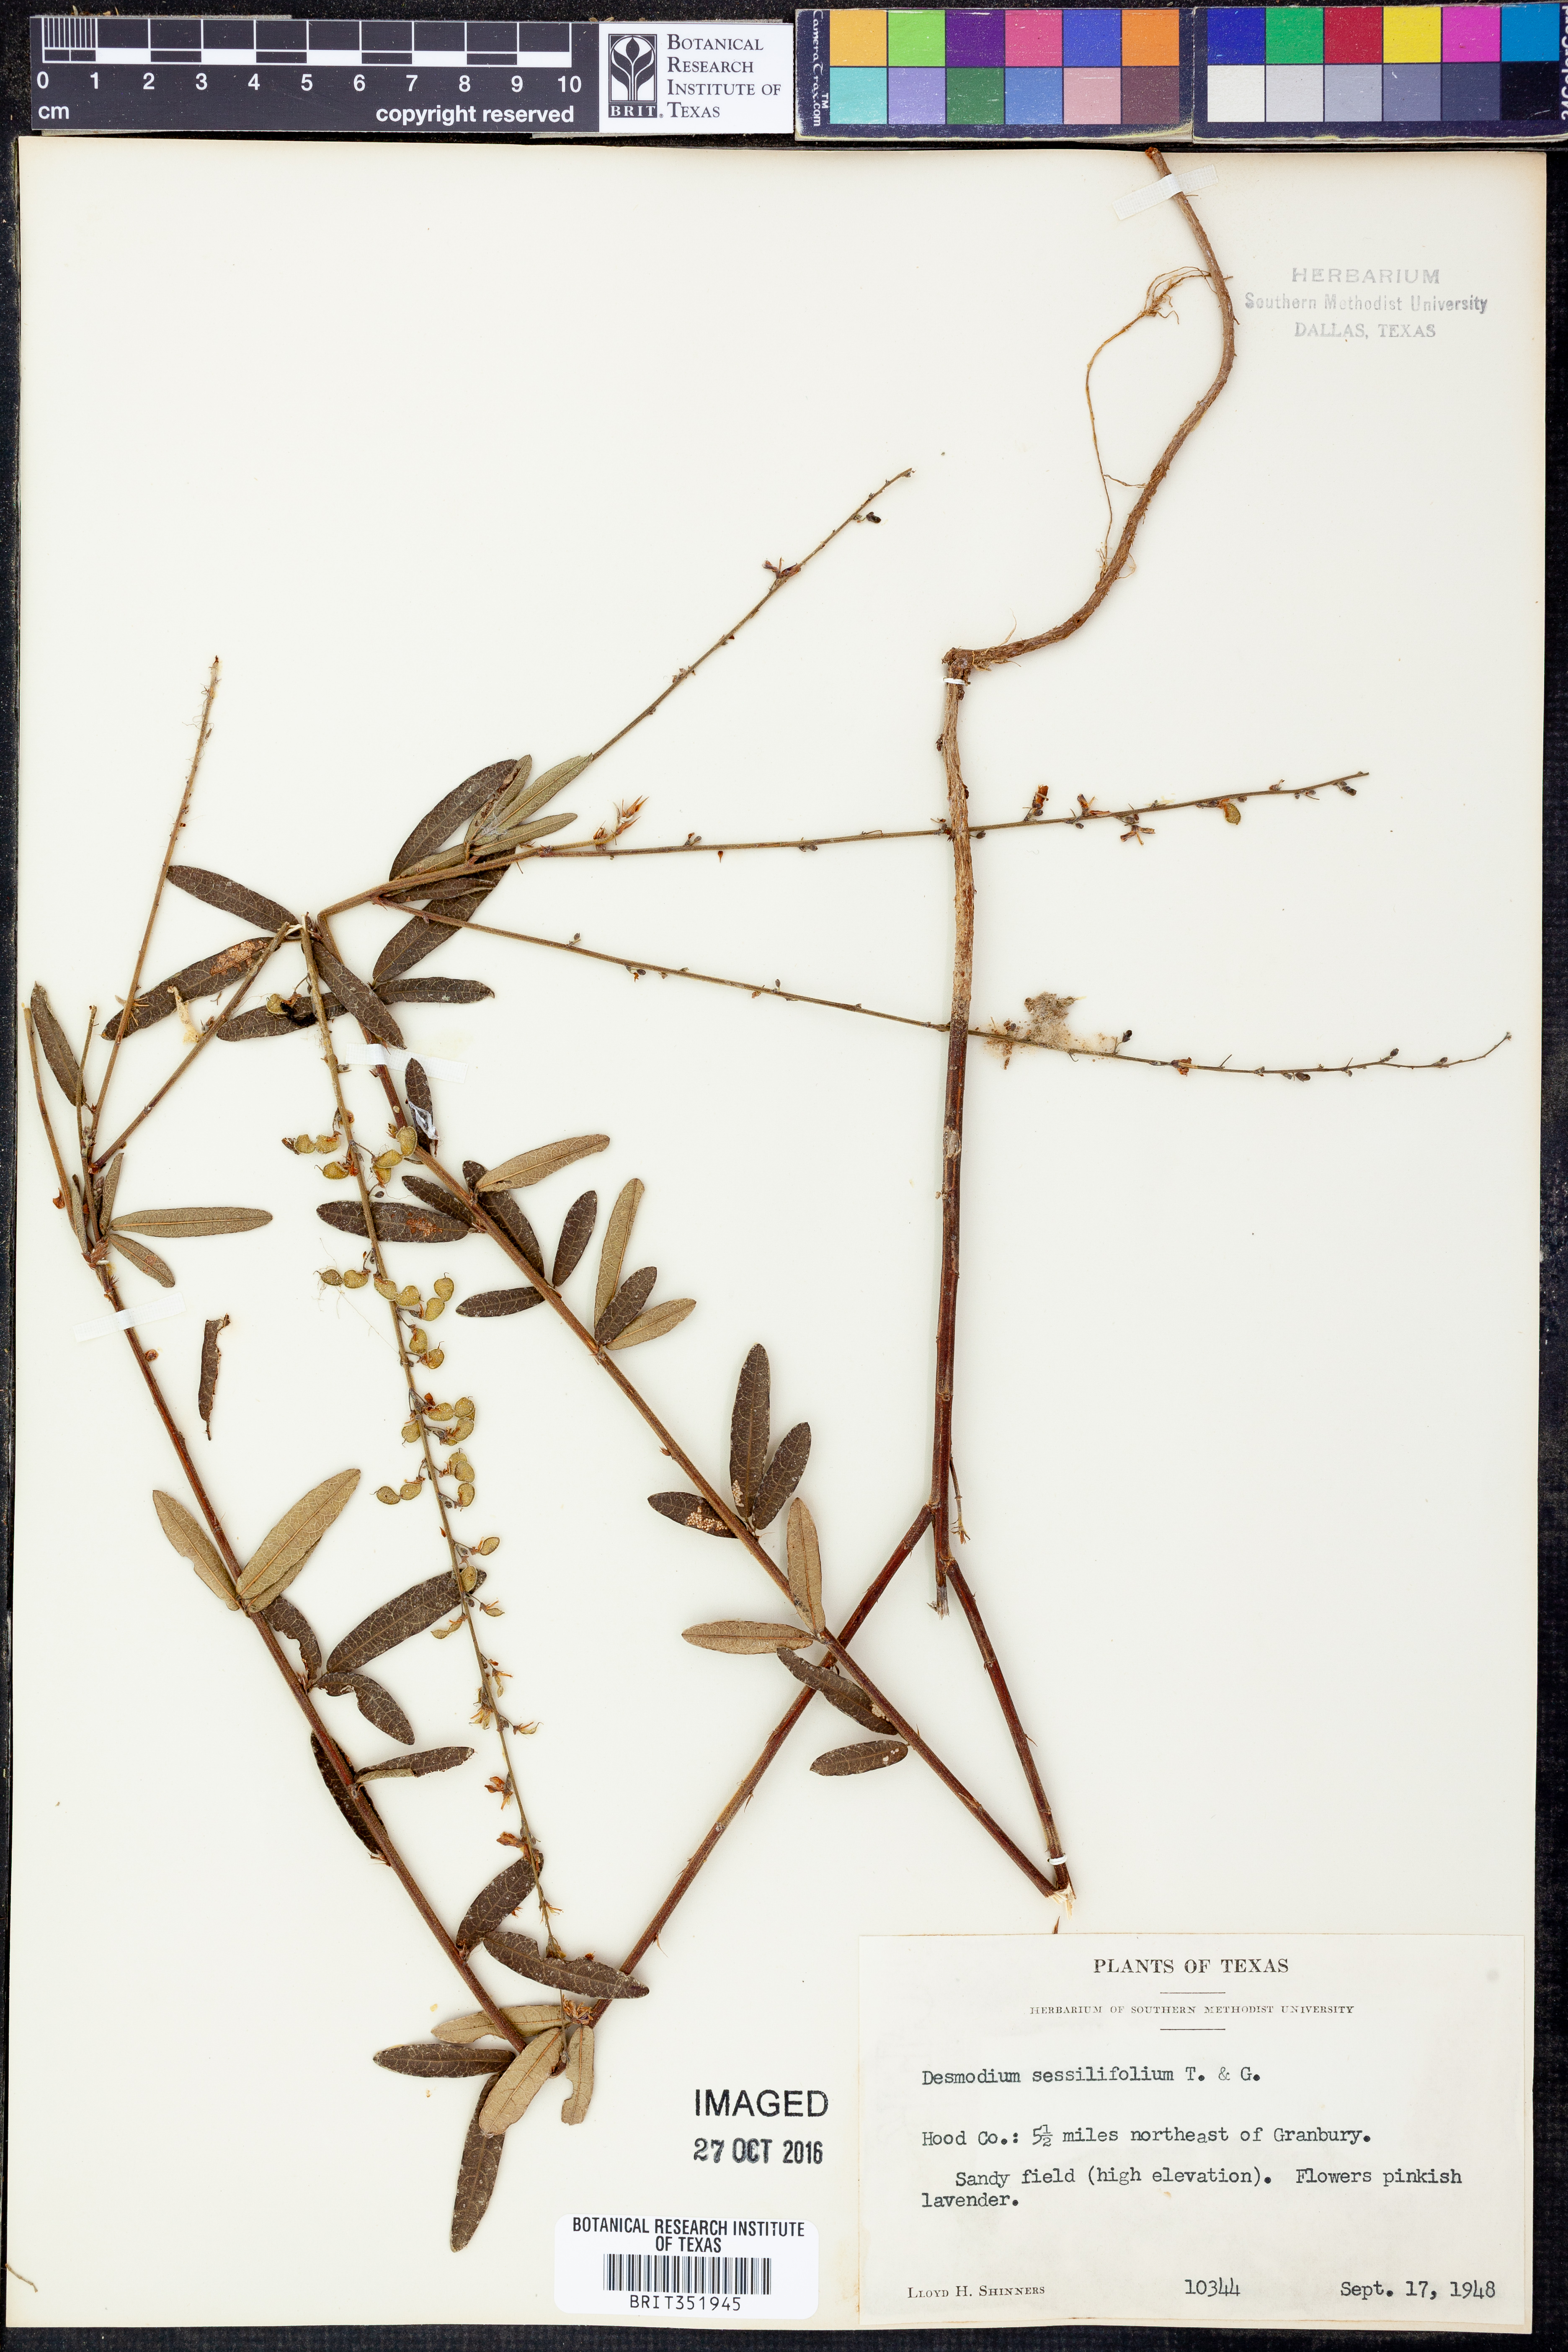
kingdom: Plantae
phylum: Tracheophyta
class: Magnoliopsida
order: Fabales
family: Fabaceae
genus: Desmodium
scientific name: Desmodium sessilifolium
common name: Sessile tick-clover
